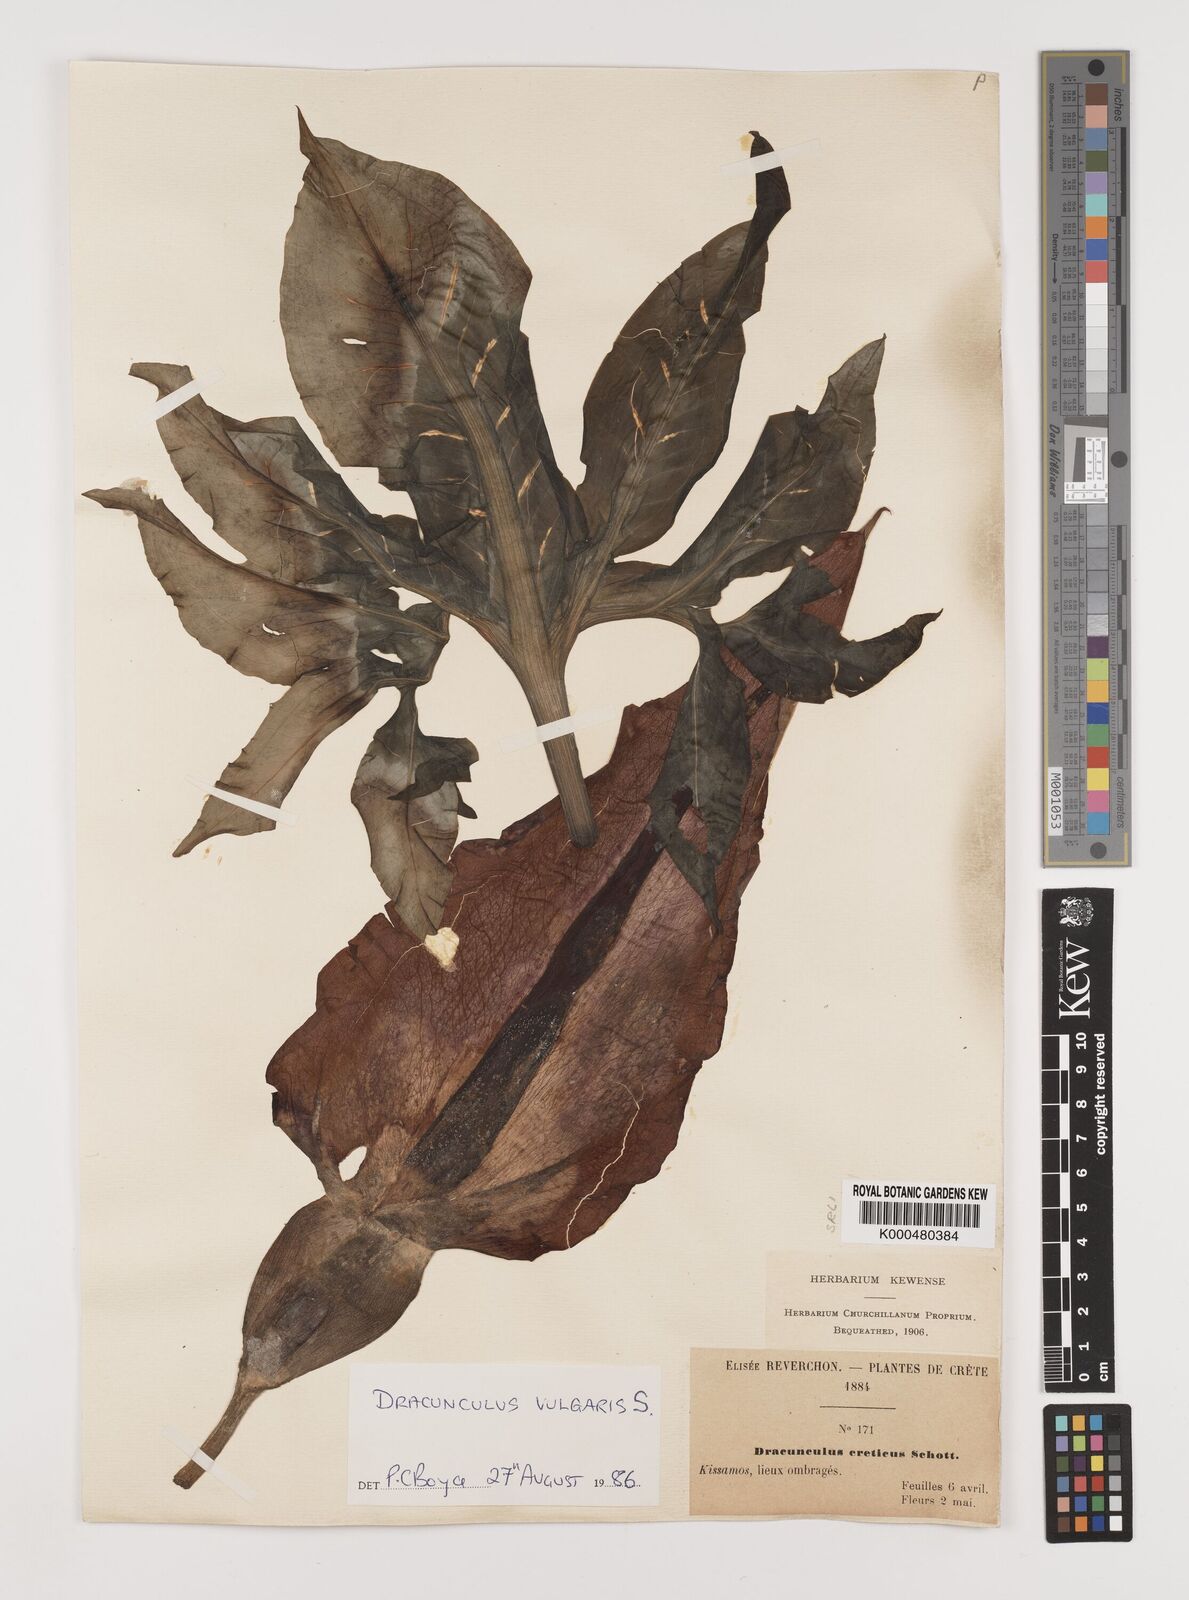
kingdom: Plantae
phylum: Tracheophyta
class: Liliopsida
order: Alismatales
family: Araceae
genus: Dracunculus
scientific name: Dracunculus vulgaris
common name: Dragon arum
